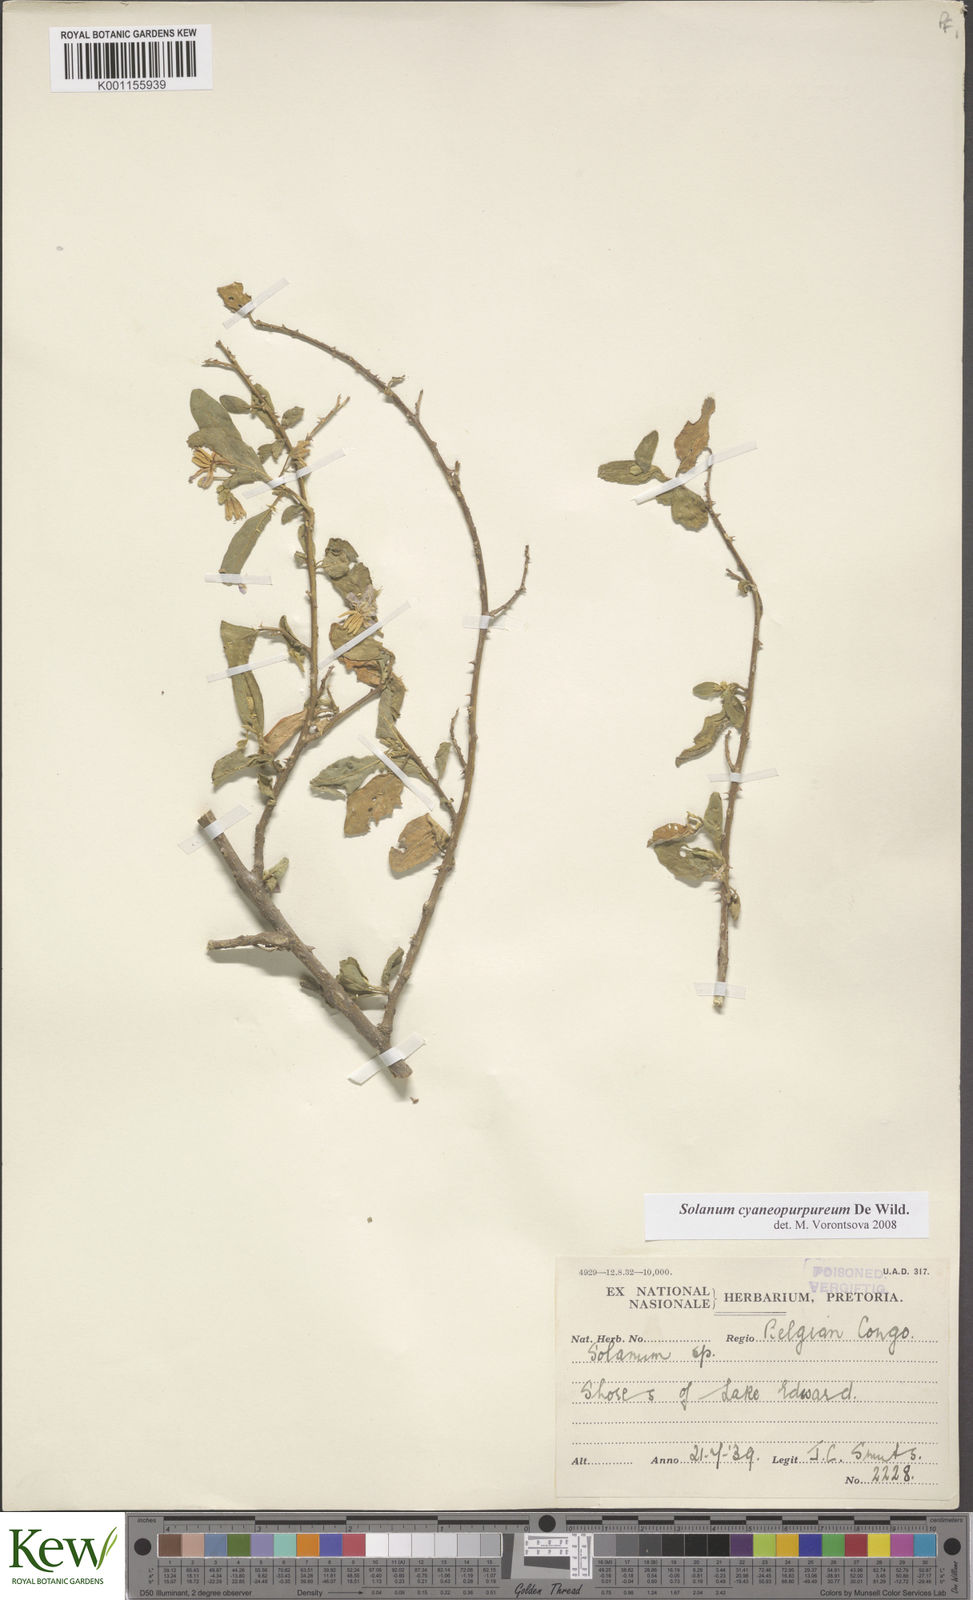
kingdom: Plantae
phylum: Tracheophyta
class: Magnoliopsida
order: Solanales
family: Solanaceae
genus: Solanum
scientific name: Solanum cyaneopurpureum
